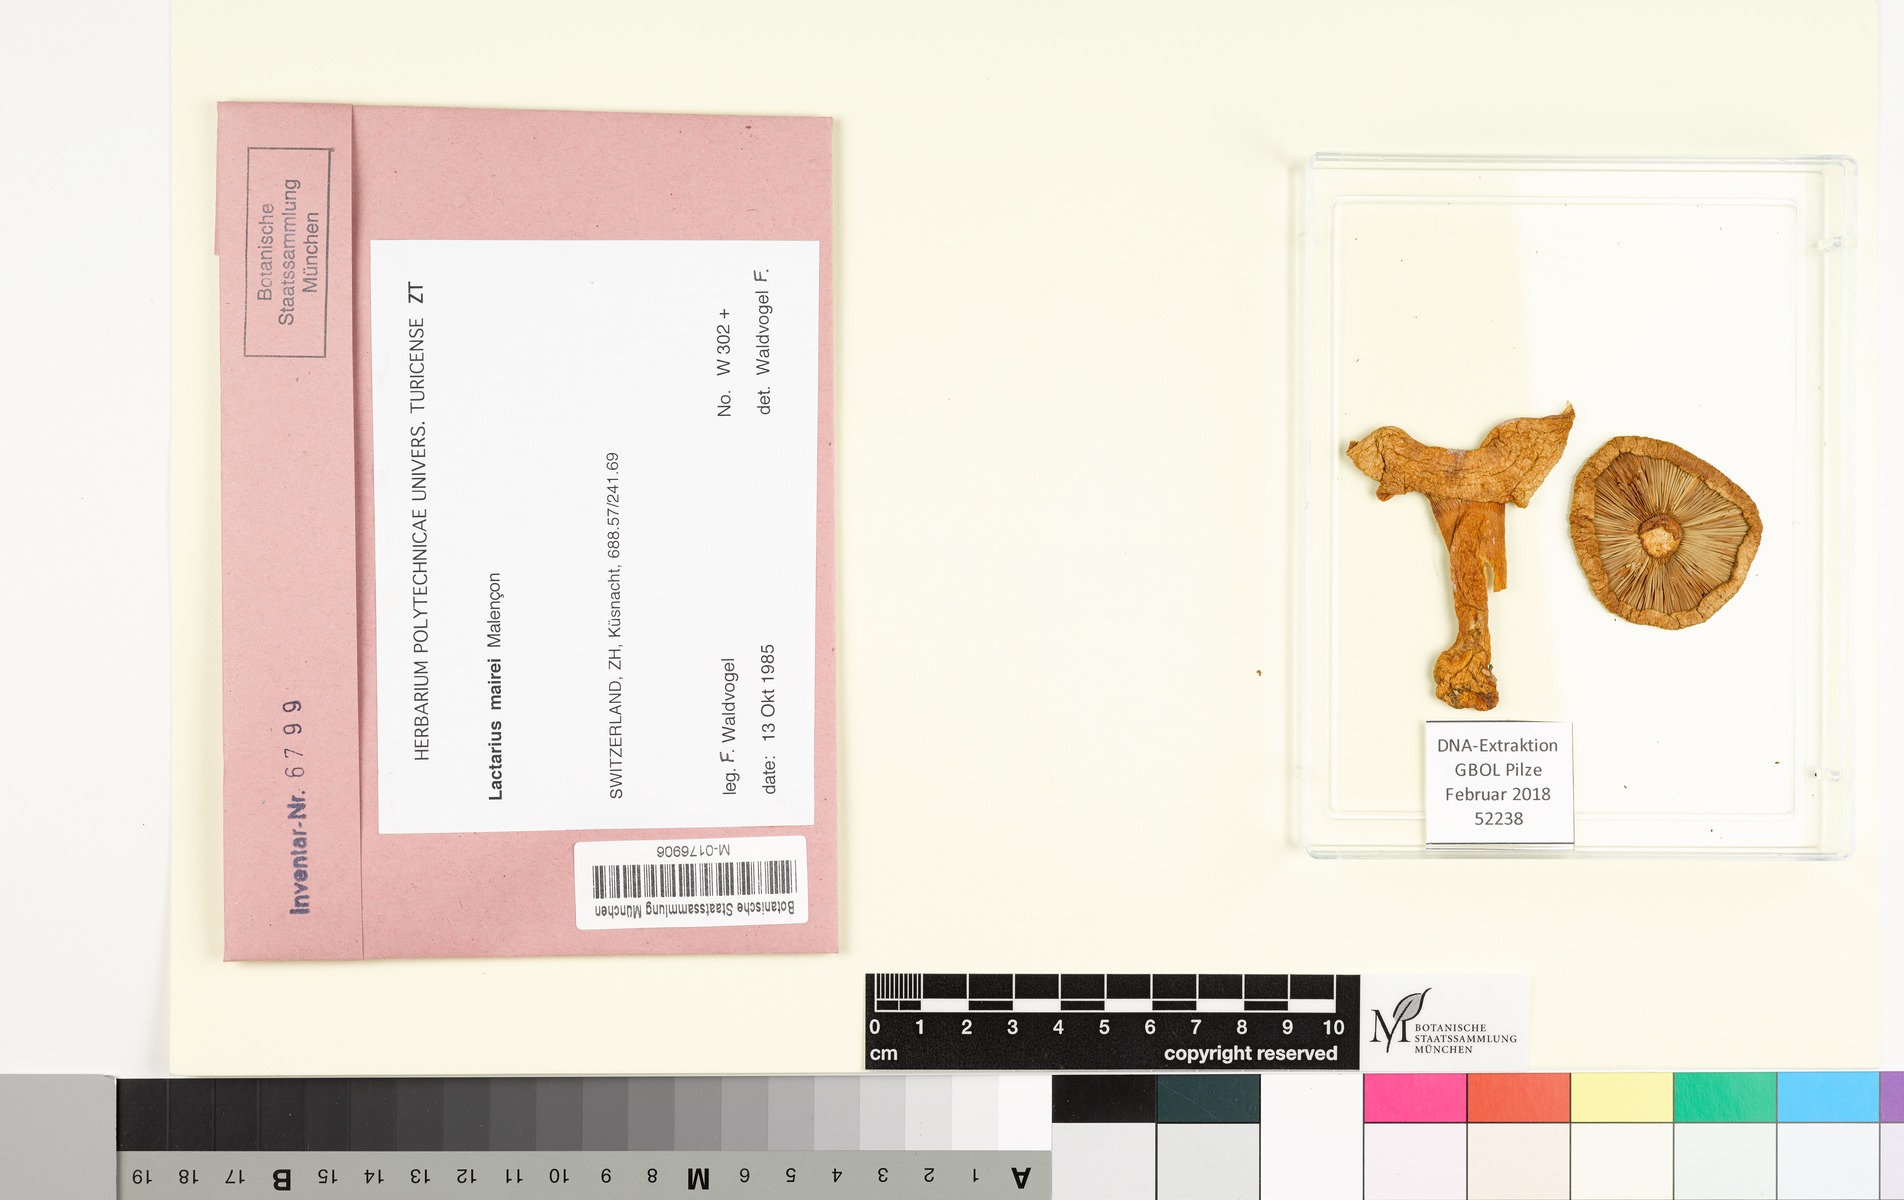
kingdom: Fungi
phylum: Basidiomycota
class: Agaricomycetes
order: Russulales
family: Russulaceae
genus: Lactarius
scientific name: Lactarius mairei
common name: Whiskery milkcap
